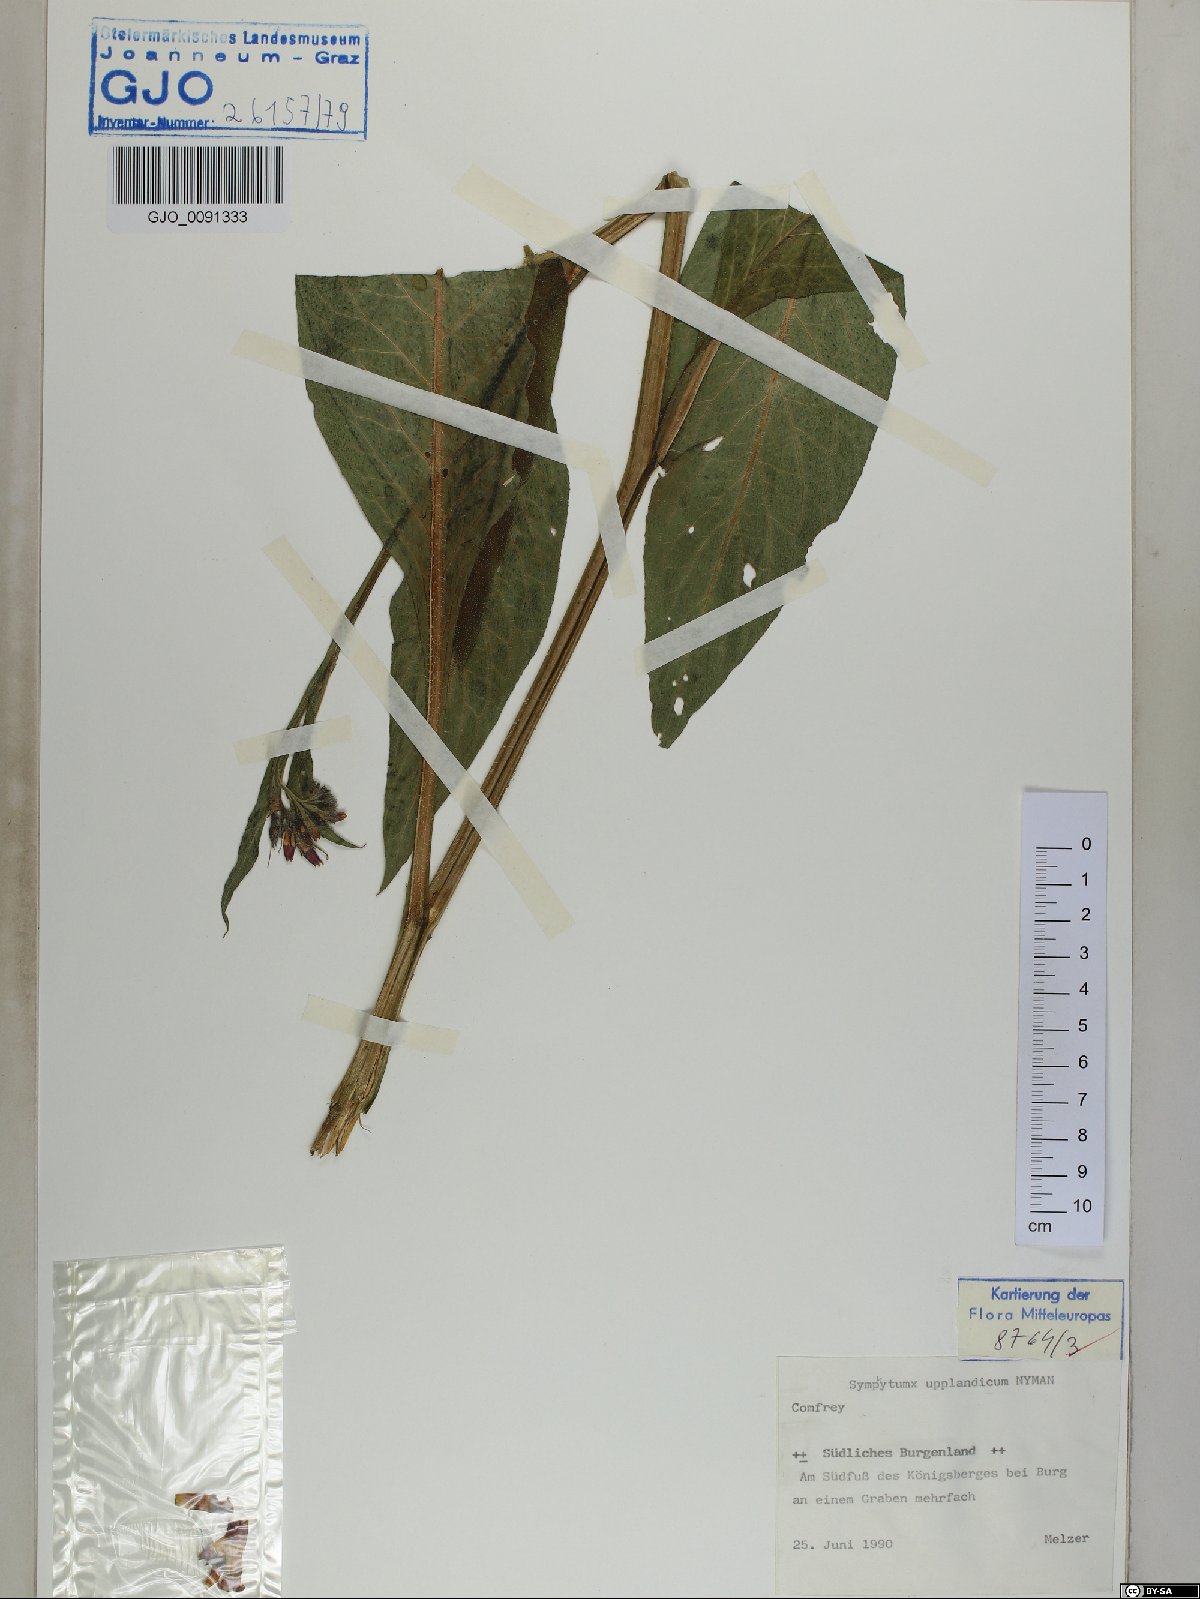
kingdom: Plantae
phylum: Tracheophyta
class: Magnoliopsida
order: Boraginales
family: Boraginaceae
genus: Symphytum
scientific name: Symphytum uplandicum
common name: Russian comfrey
